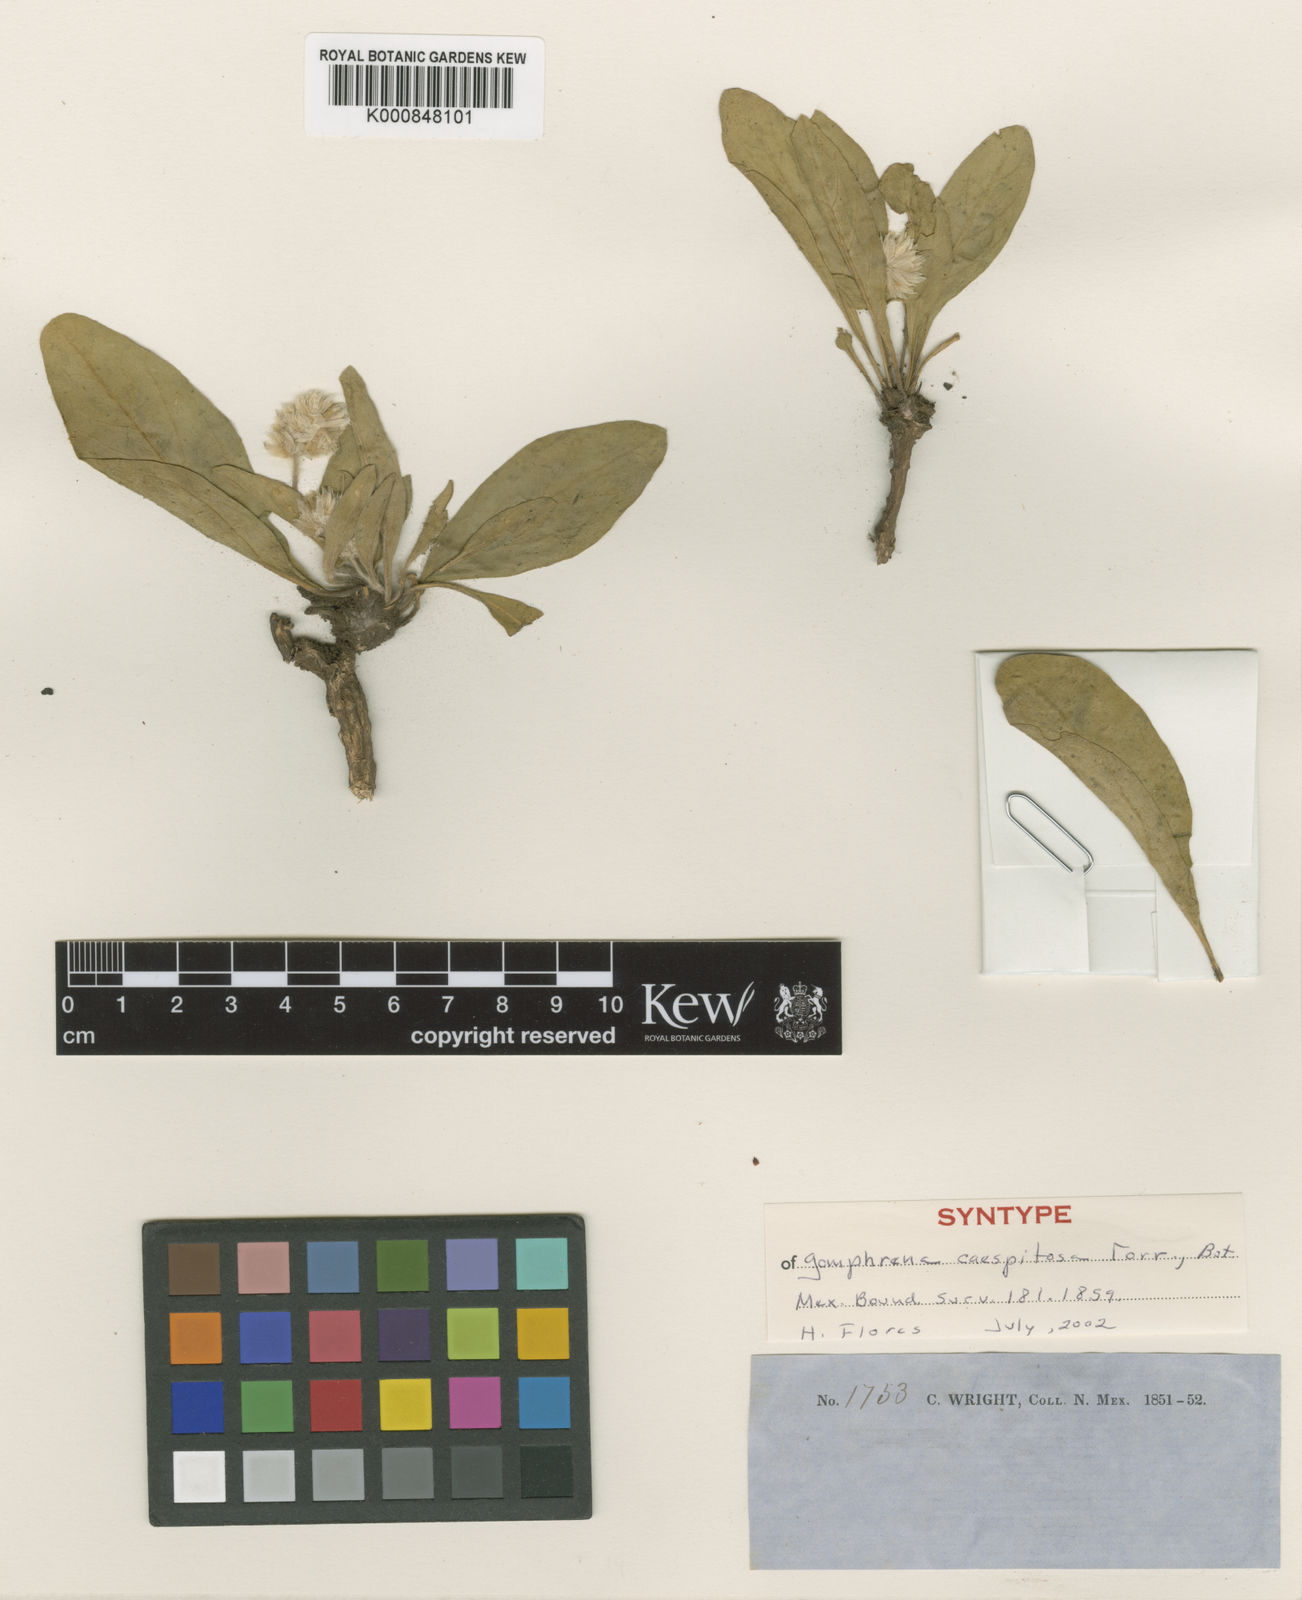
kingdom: Plantae
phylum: Tracheophyta
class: Magnoliopsida
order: Caryophyllales
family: Amaranthaceae
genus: Gomphrena
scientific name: Gomphrena caespitosa
